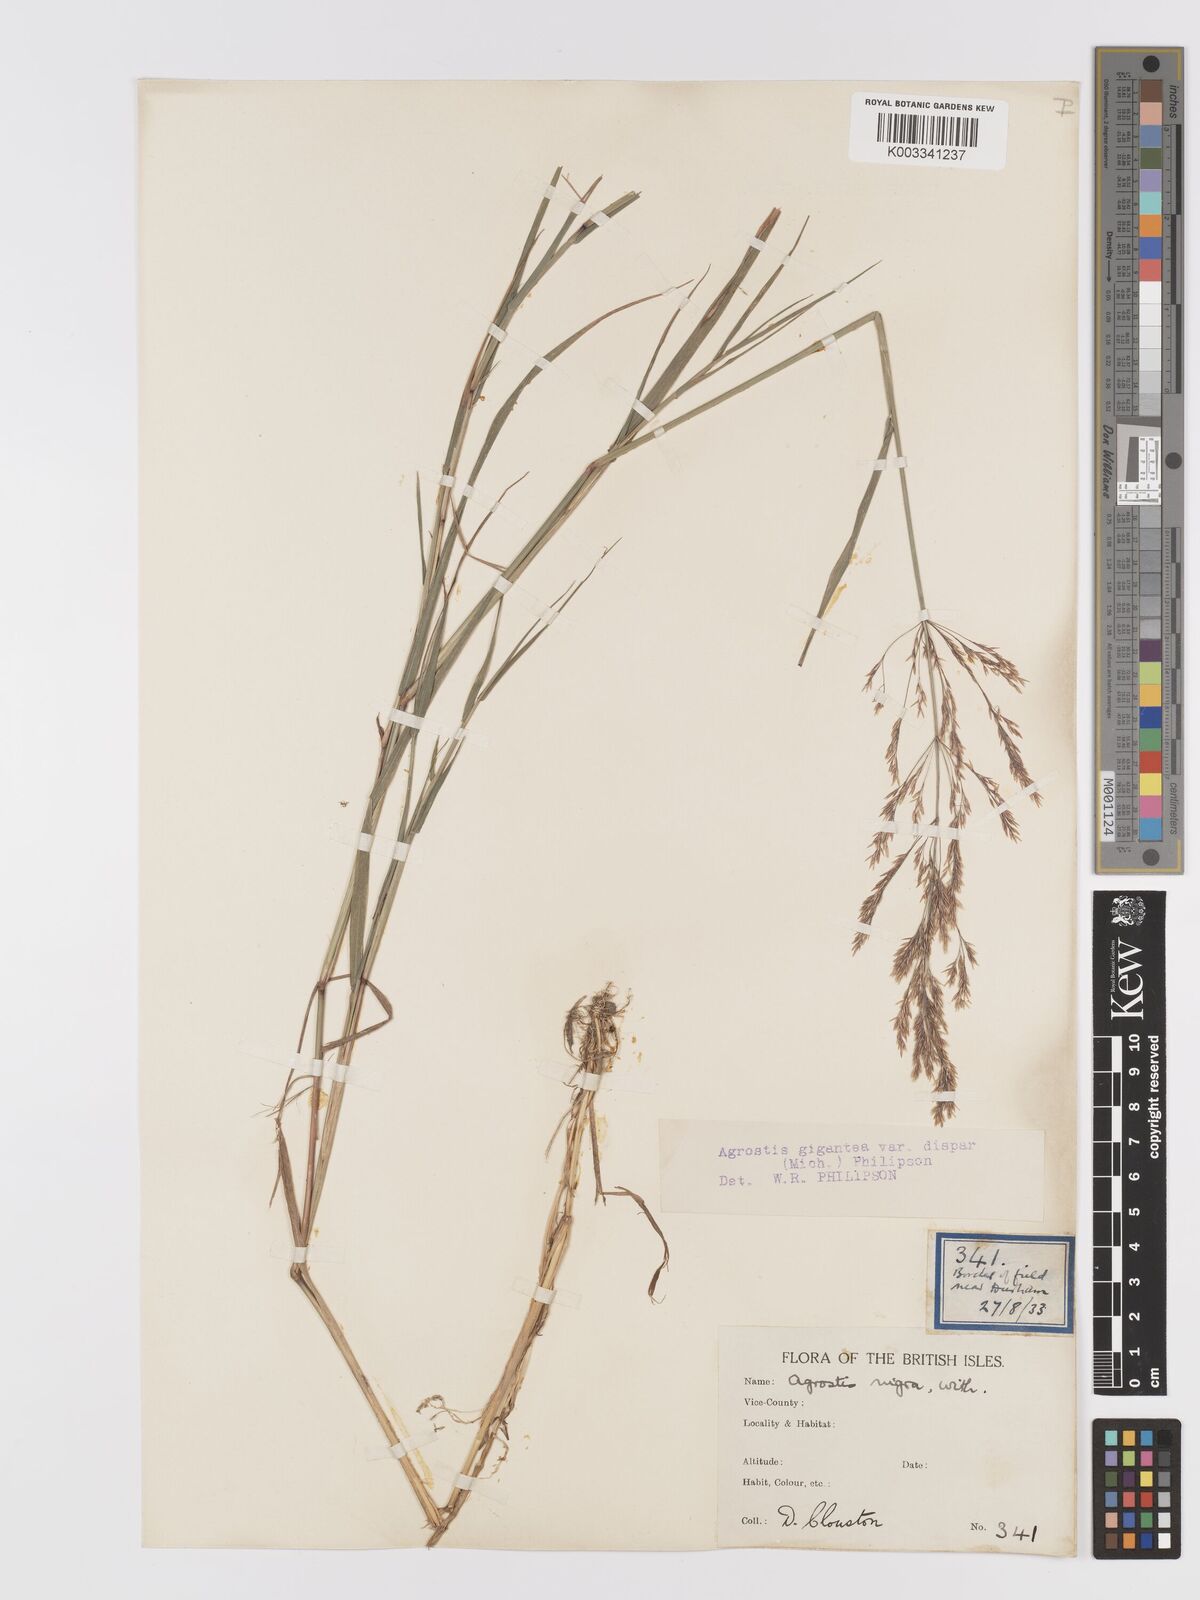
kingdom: Plantae
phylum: Tracheophyta
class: Liliopsida
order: Poales
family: Poaceae
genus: Agrostis
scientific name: Agrostis gigantea
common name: Black bent
